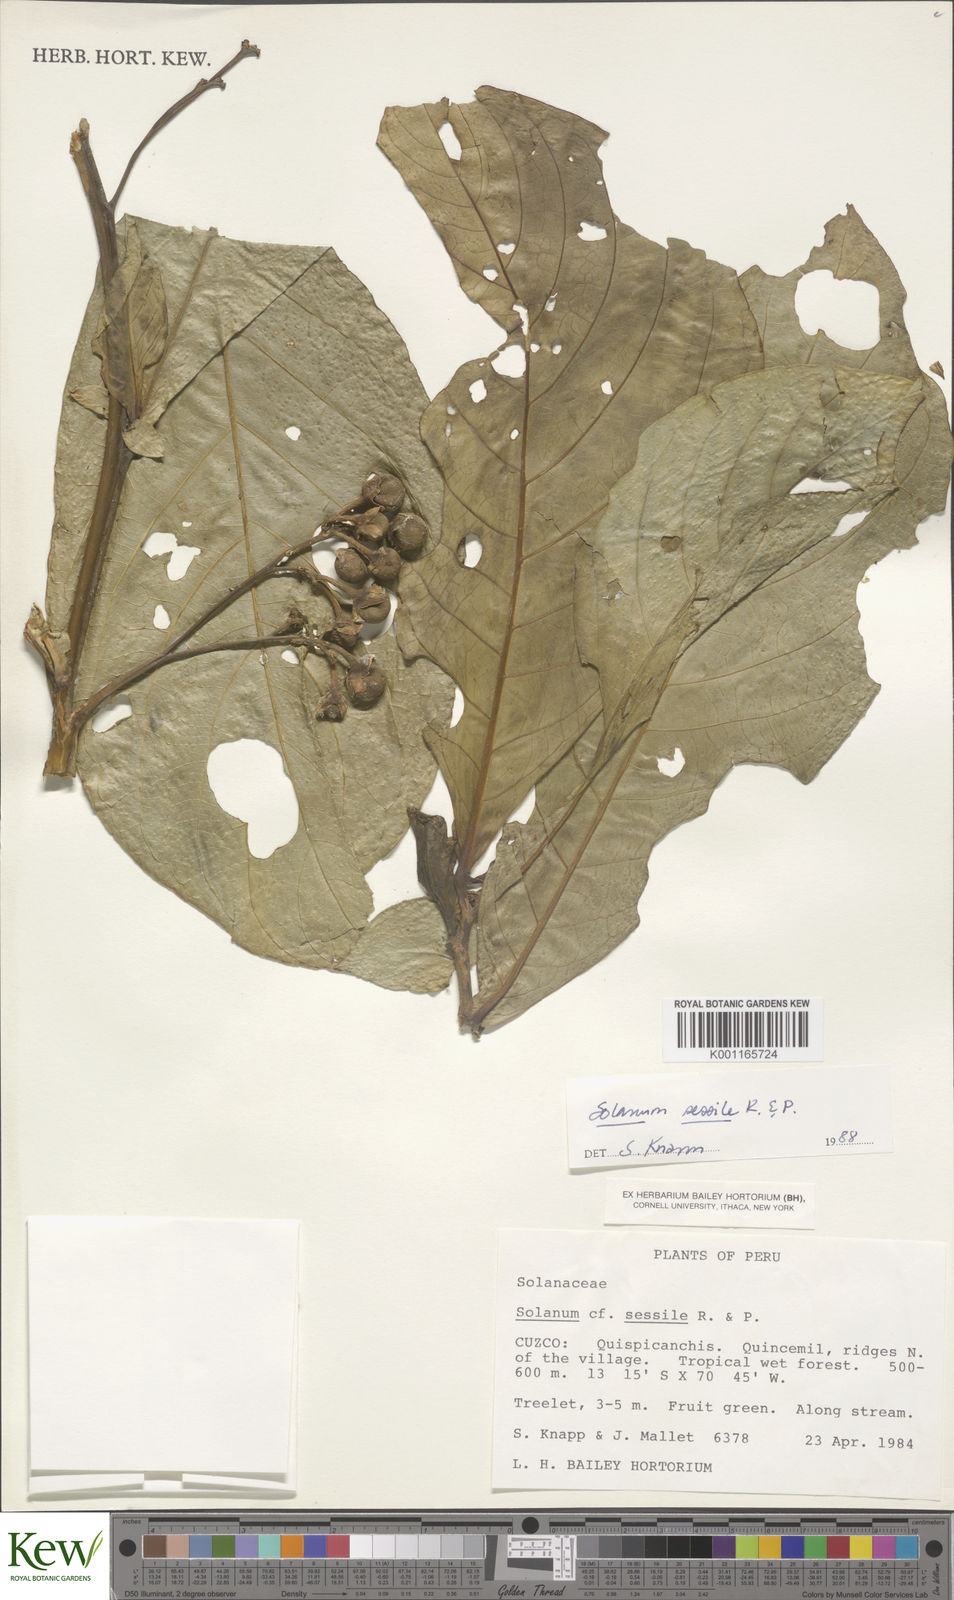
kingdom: Plantae
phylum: Tracheophyta
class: Magnoliopsida
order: Solanales
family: Solanaceae
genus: Solanum
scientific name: Solanum sessile
